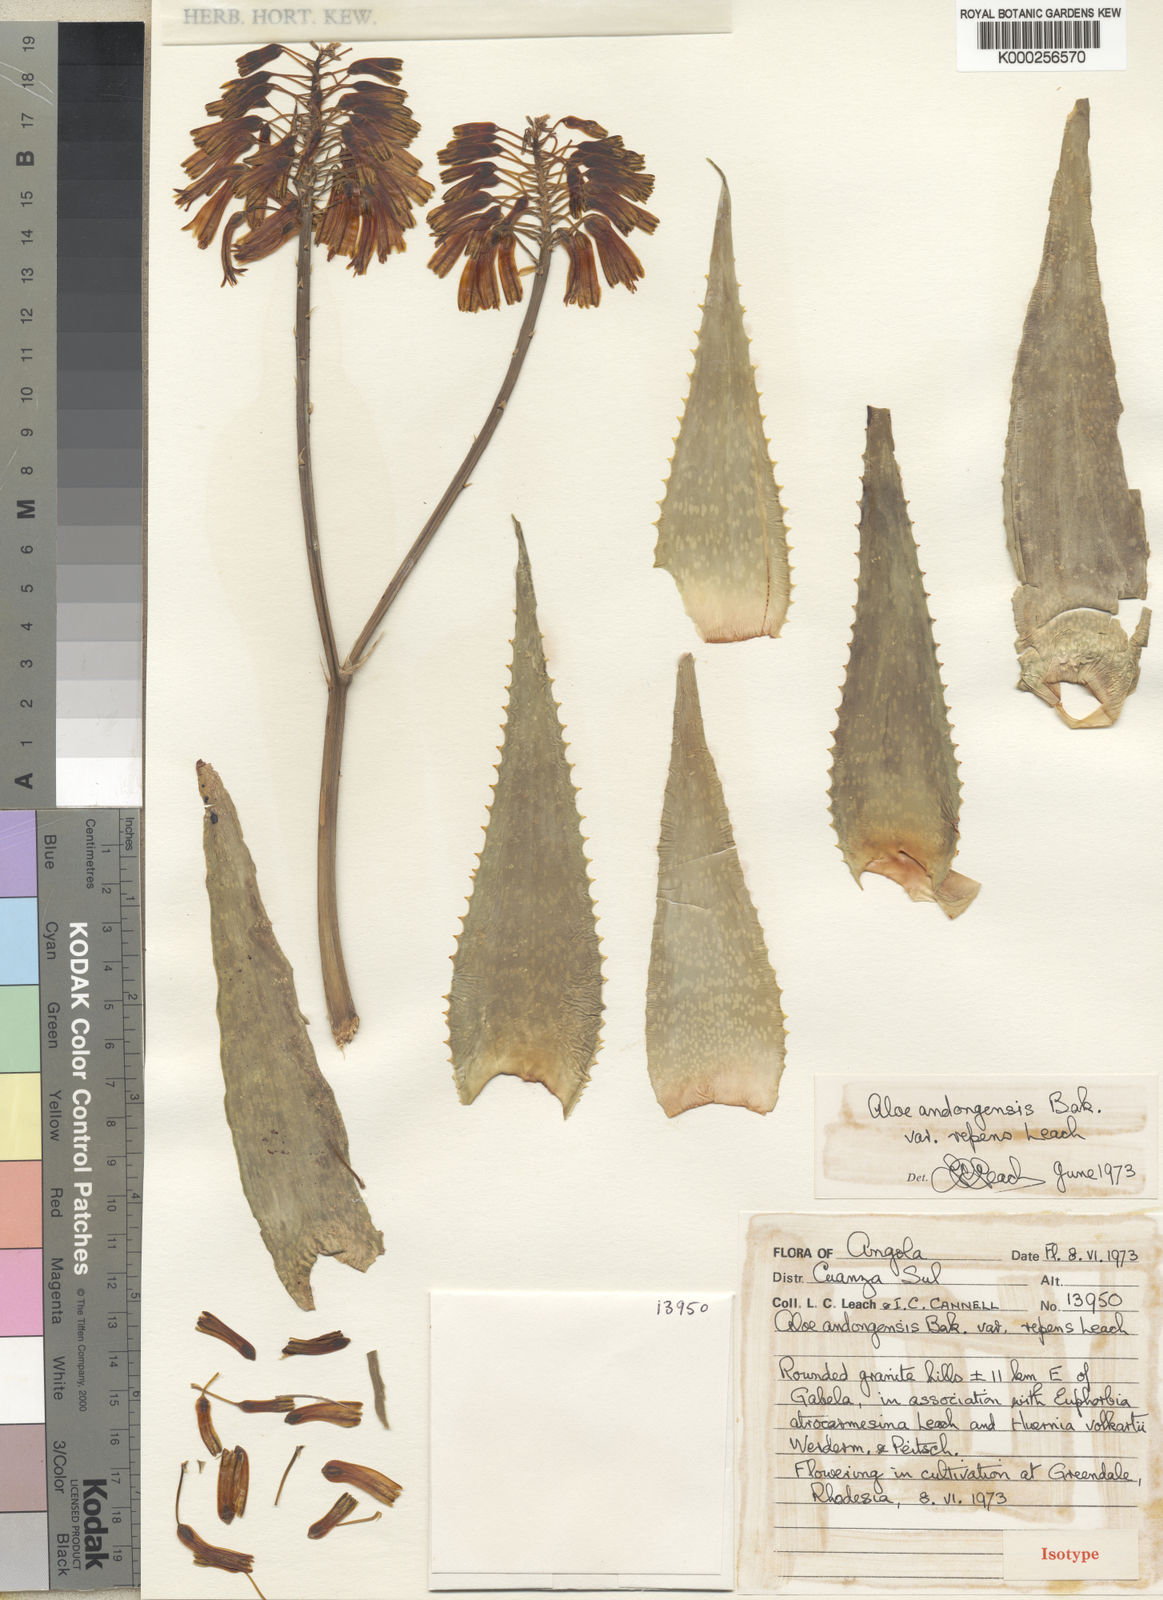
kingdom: Plantae
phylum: Tracheophyta
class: Liliopsida
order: Asparagales
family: Asphodelaceae
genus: Aloe
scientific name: Aloe andongensis
